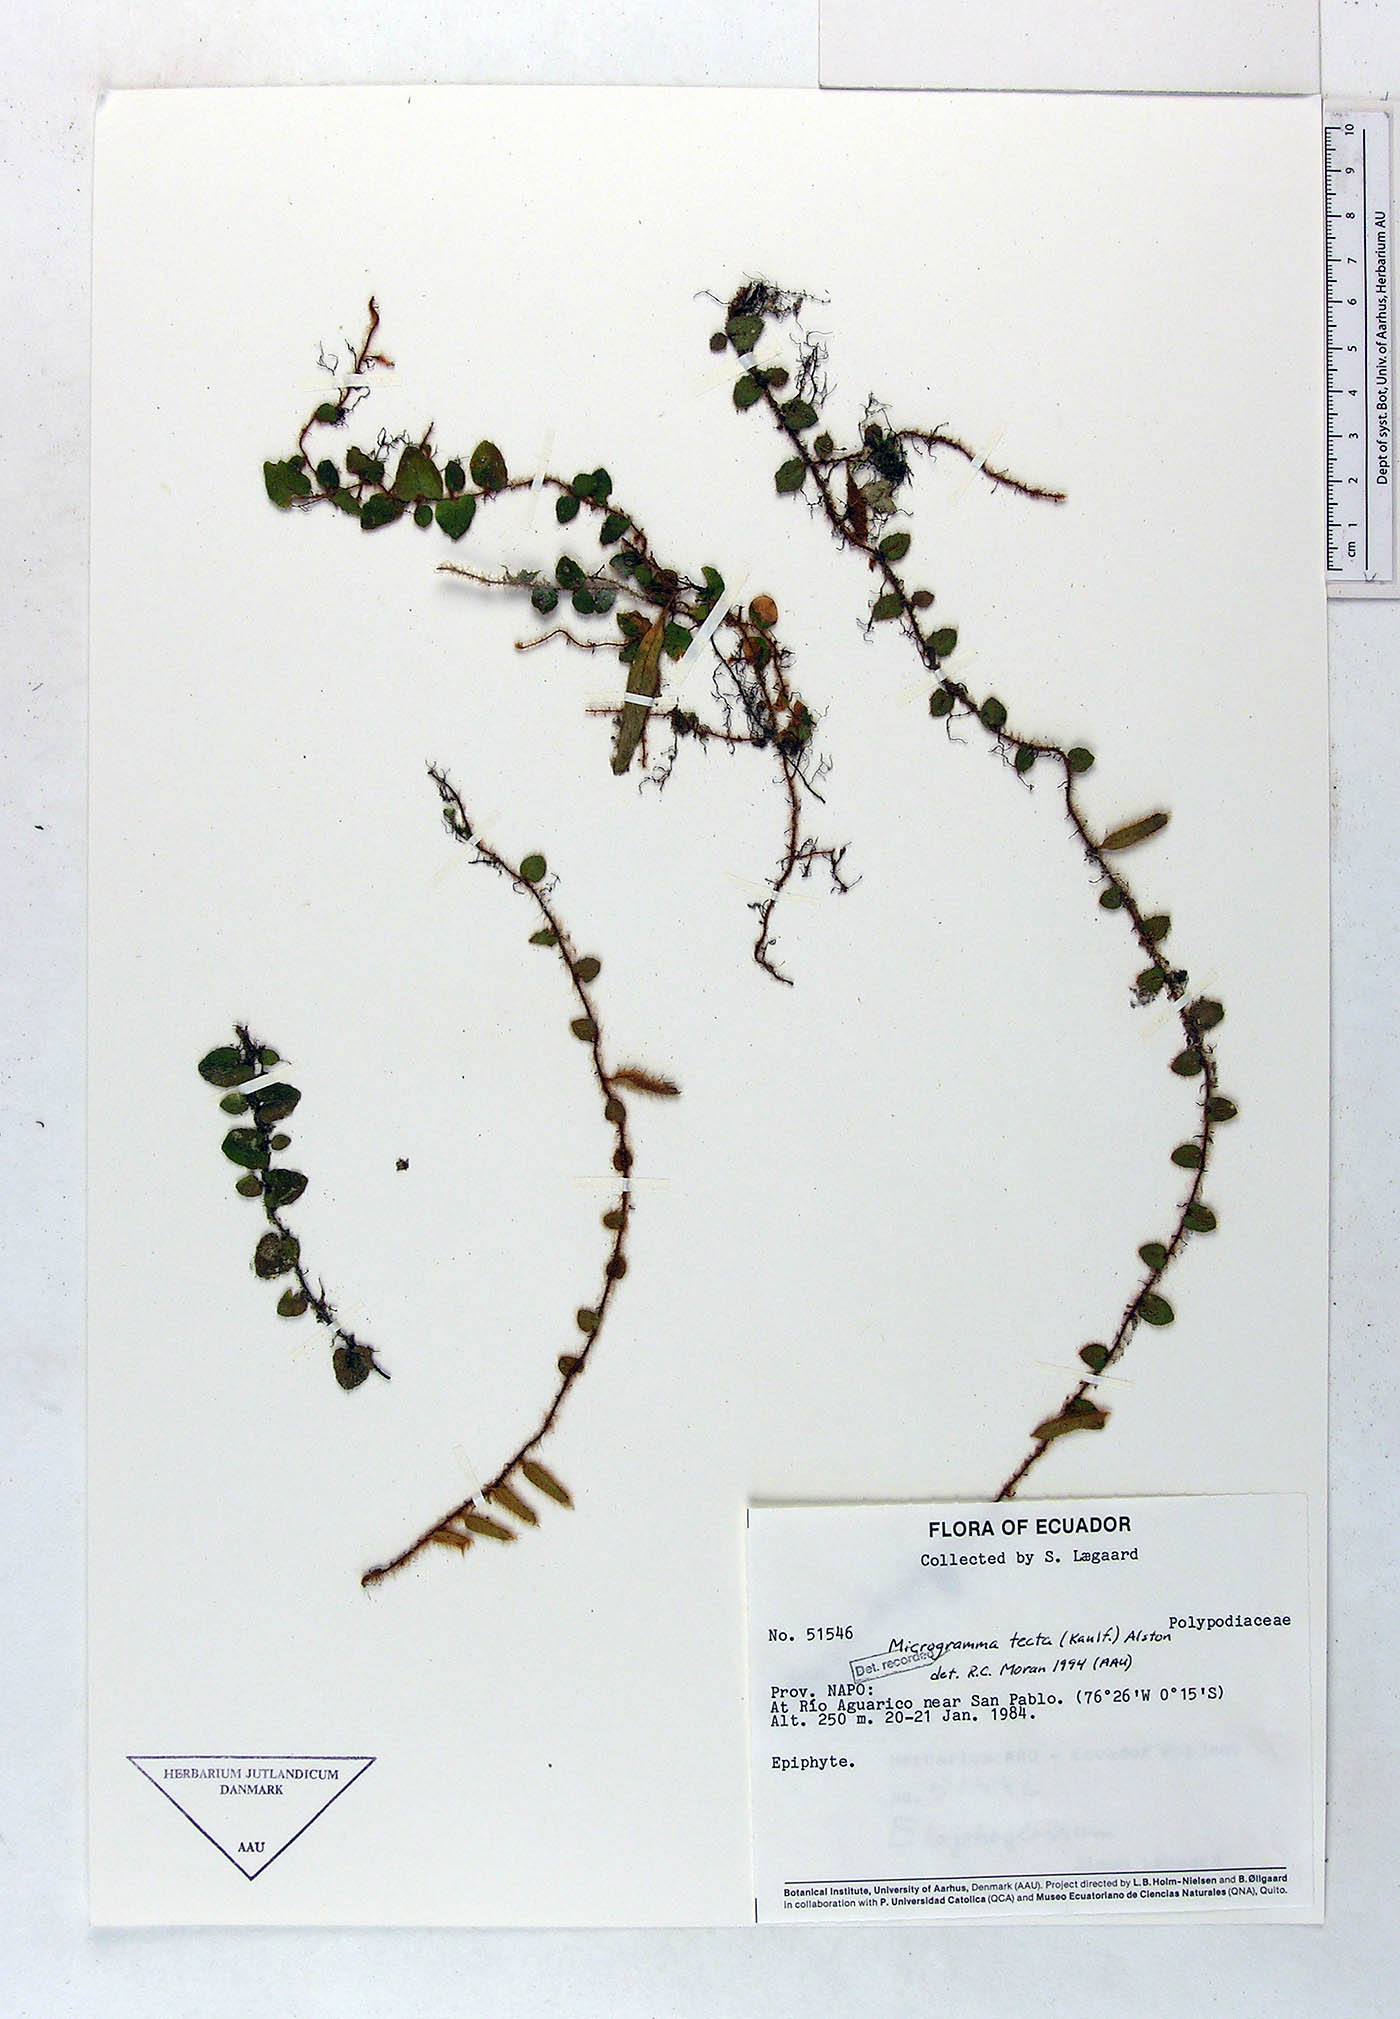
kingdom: Plantae
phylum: Tracheophyta
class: Polypodiopsida
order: Polypodiales
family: Polypodiaceae
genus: Microgramma
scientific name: Microgramma tecta
